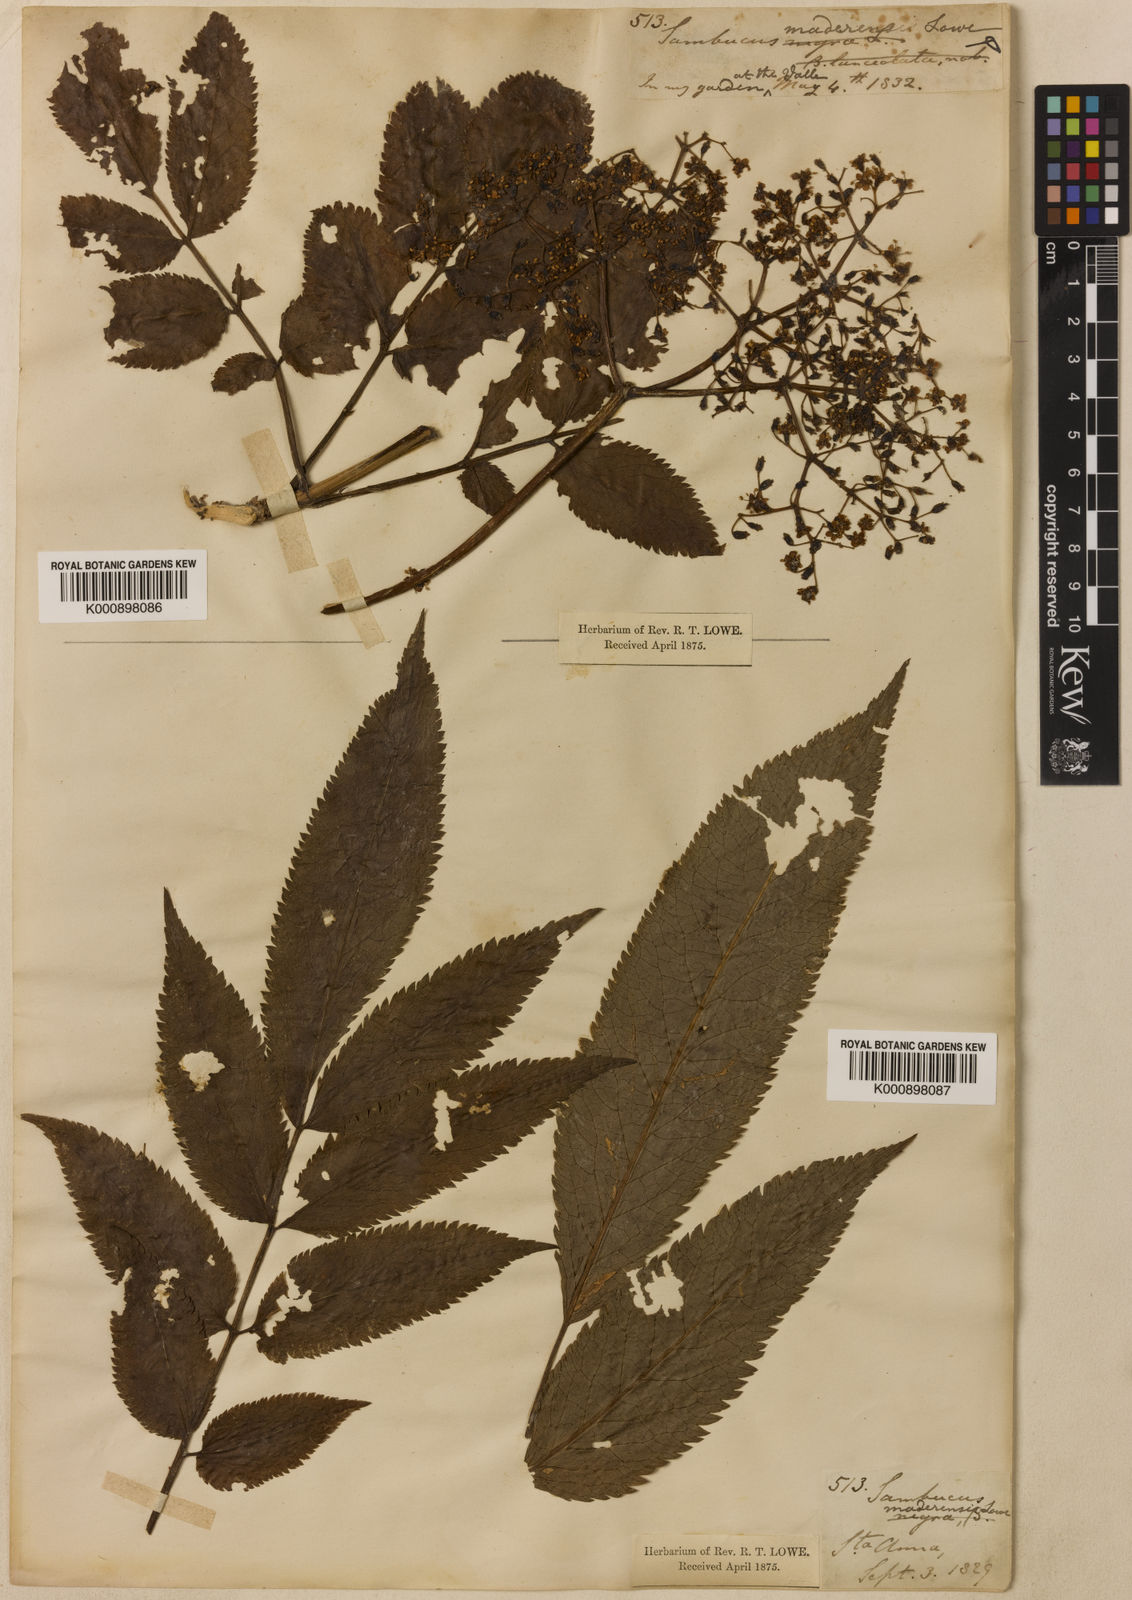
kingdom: Plantae
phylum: Tracheophyta
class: Magnoliopsida
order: Dipsacales
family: Viburnaceae
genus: Sambucus
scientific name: Sambucus lanceolata
